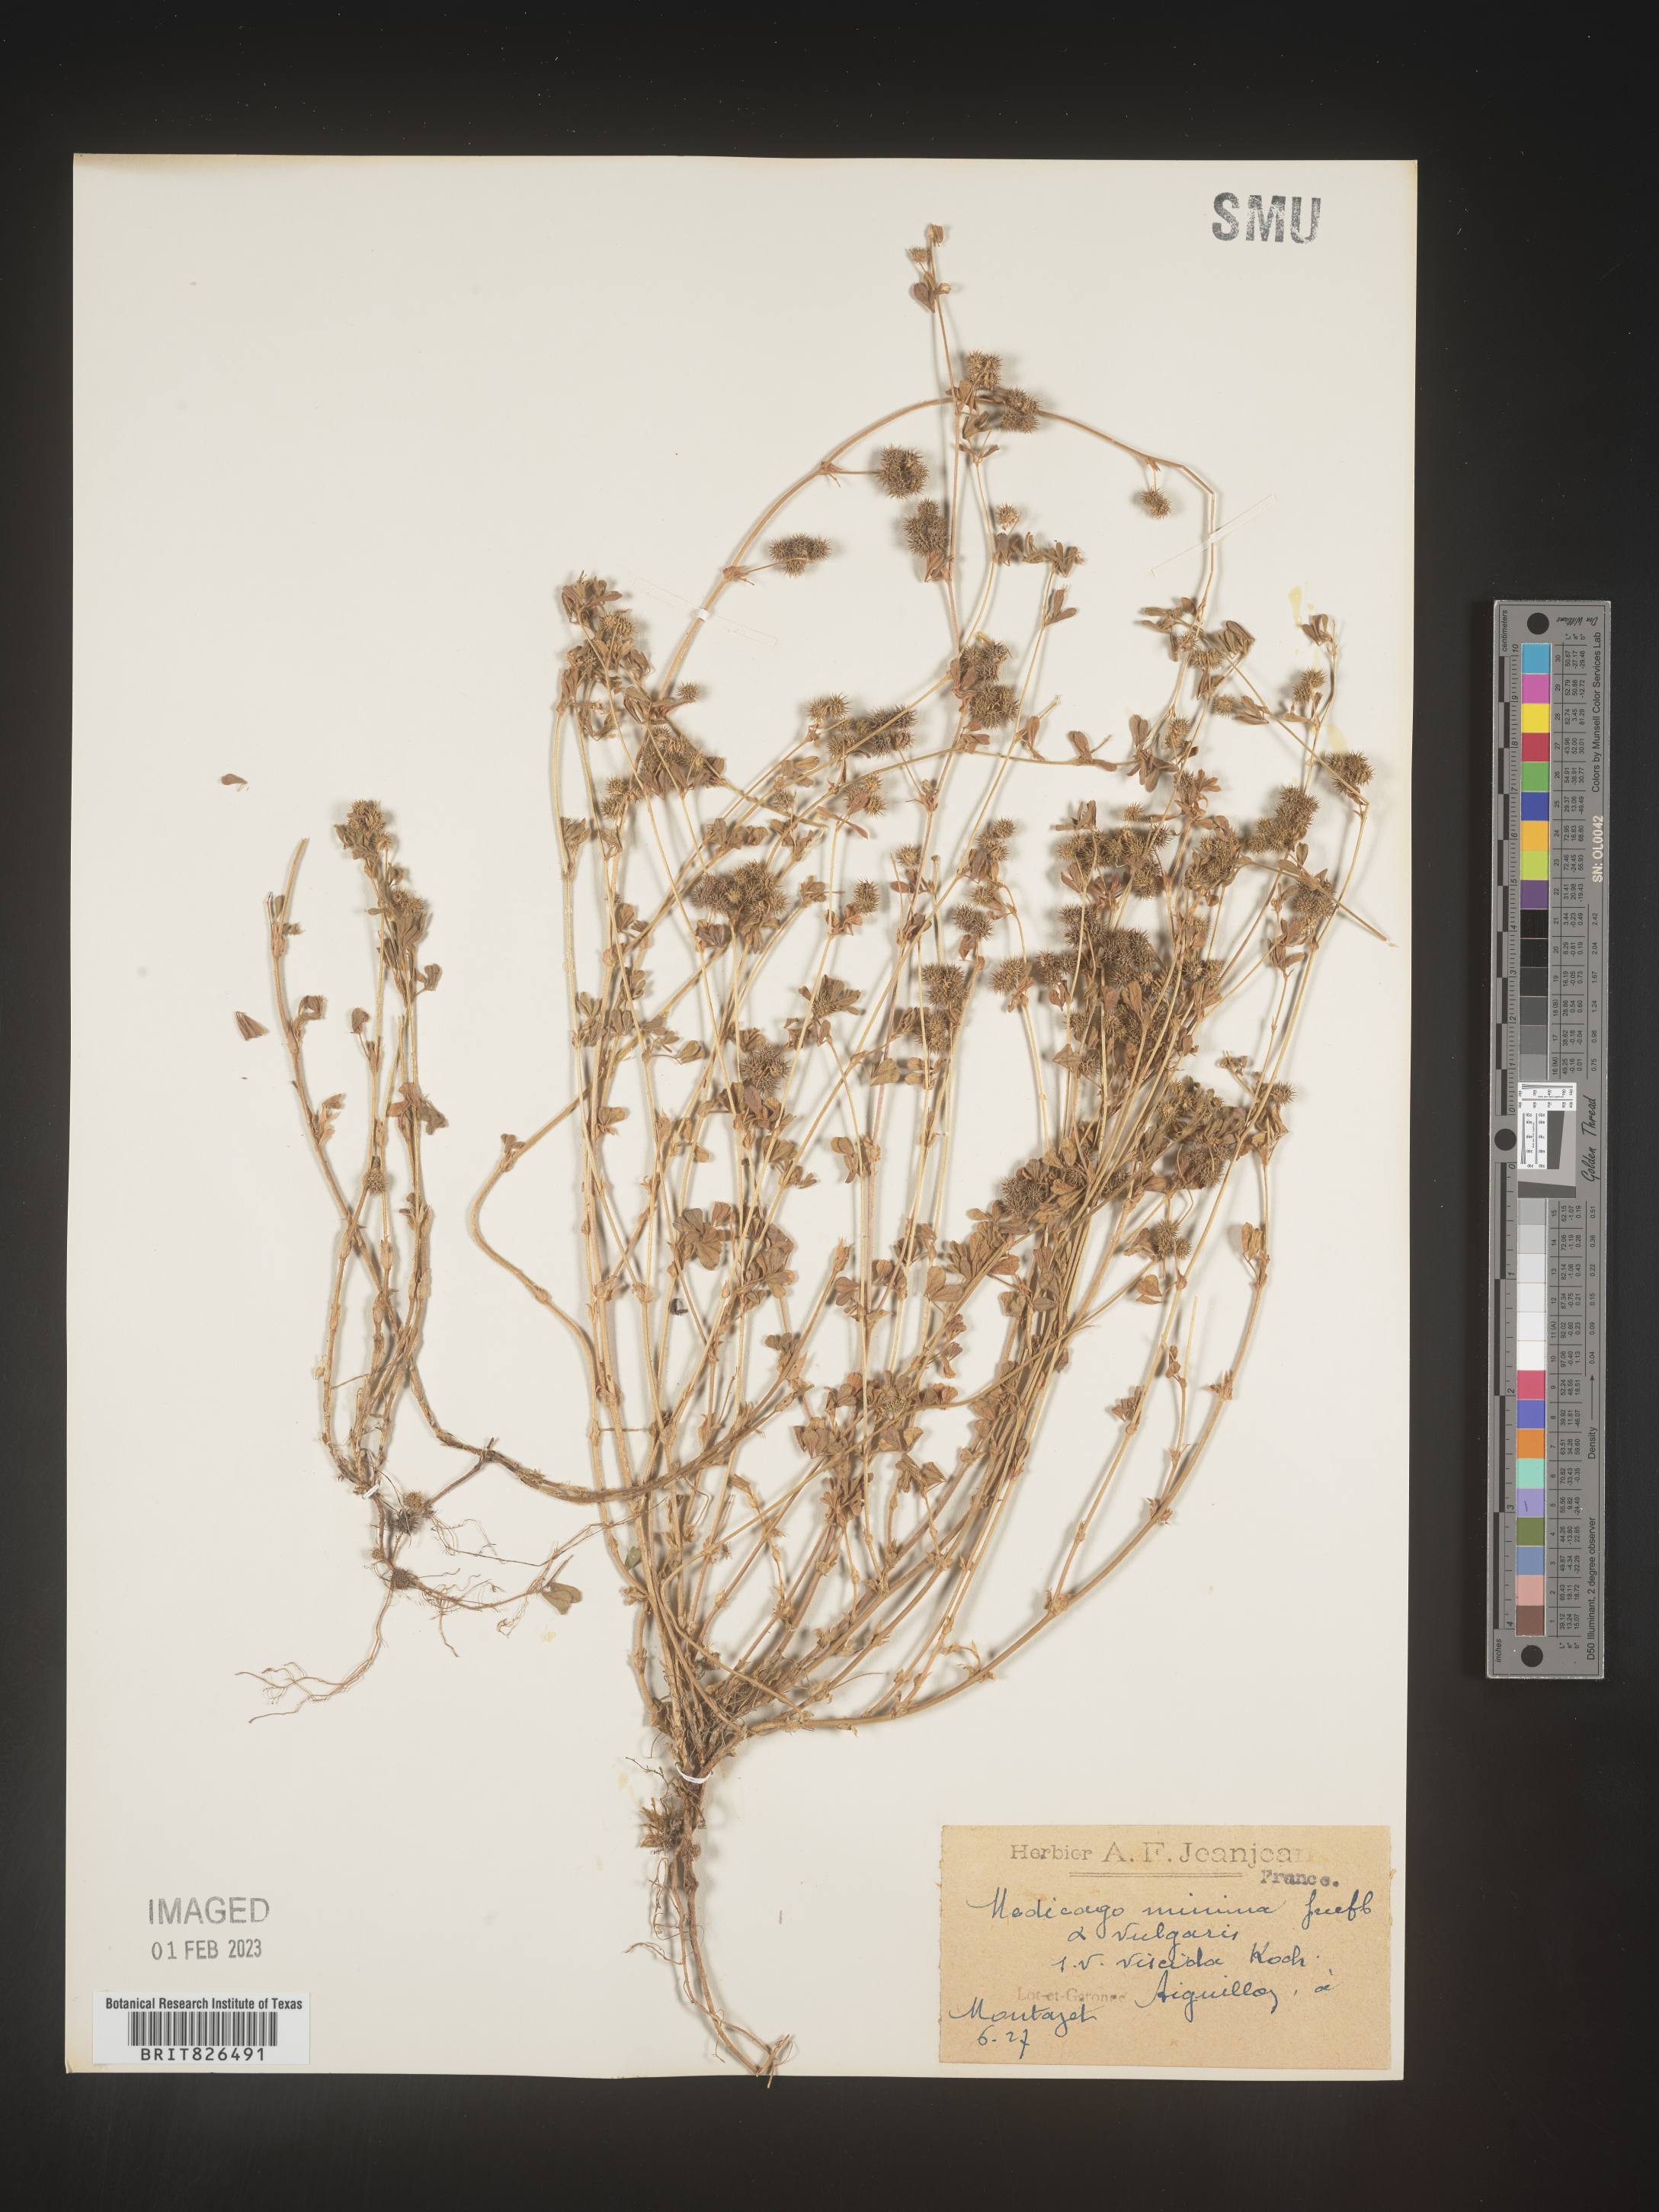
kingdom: Plantae
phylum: Tracheophyta
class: Magnoliopsida
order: Fabales
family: Fabaceae
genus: Medicago
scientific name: Medicago
